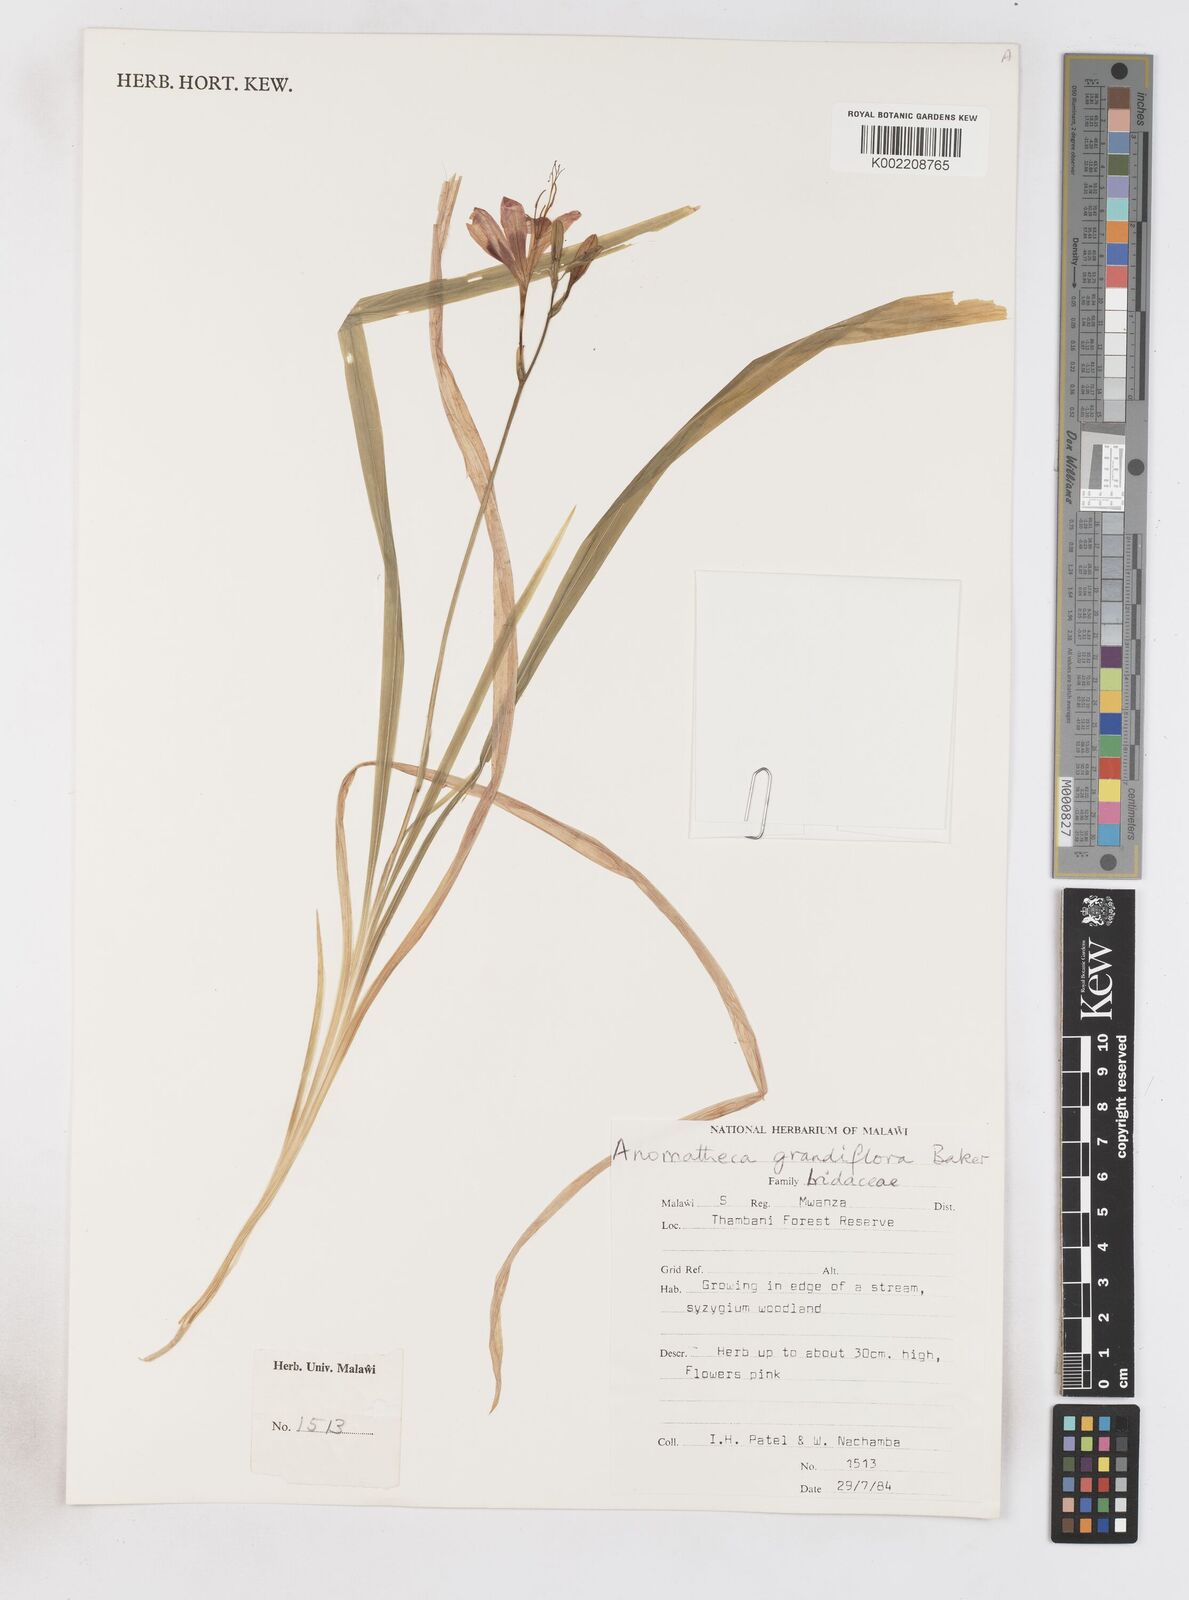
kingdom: Plantae
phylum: Tracheophyta
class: Liliopsida
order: Asparagales
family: Iridaceae
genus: Freesia
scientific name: Freesia grandiflora
